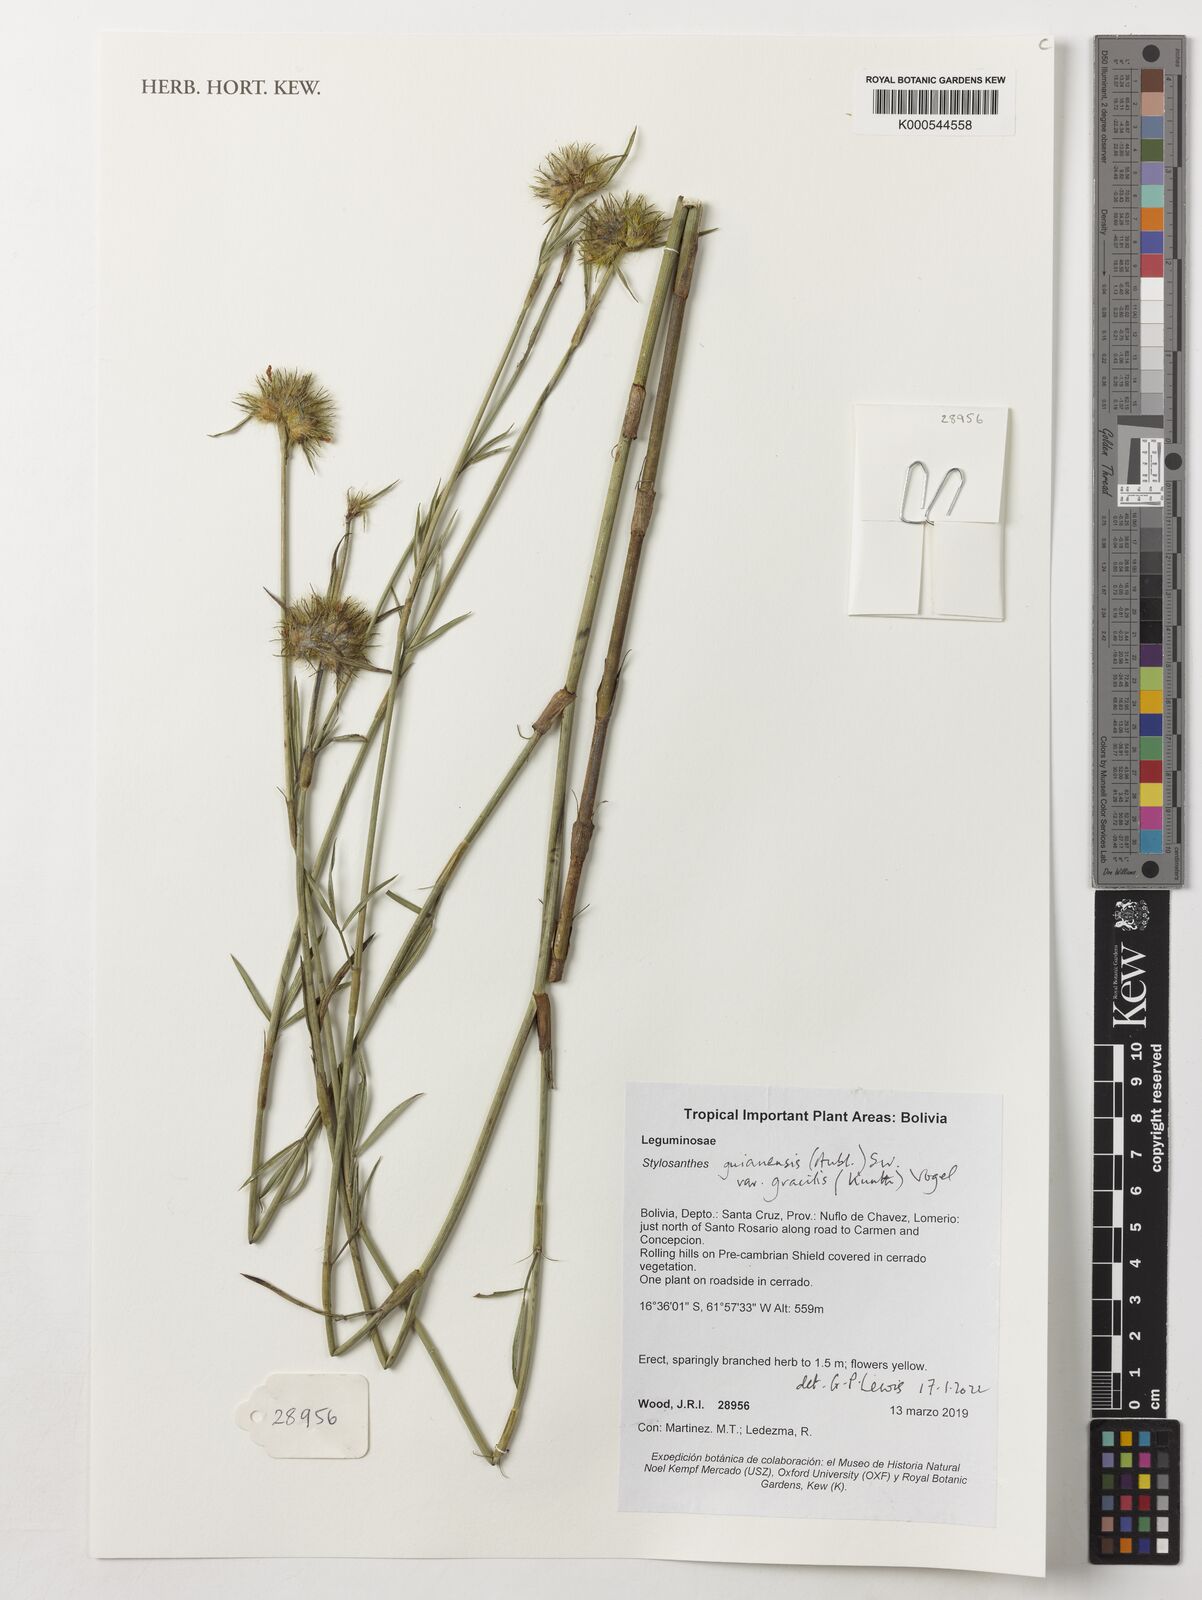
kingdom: Plantae
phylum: Tracheophyta
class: Magnoliopsida
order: Fabales
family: Fabaceae
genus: Stylosanthes
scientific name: Stylosanthes guianensis
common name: Pencil flower
